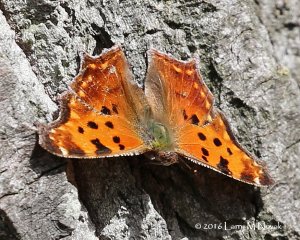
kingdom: Animalia
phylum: Arthropoda
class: Insecta
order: Lepidoptera
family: Nymphalidae
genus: Polygonia
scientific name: Polygonia comma
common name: Eastern Comma
